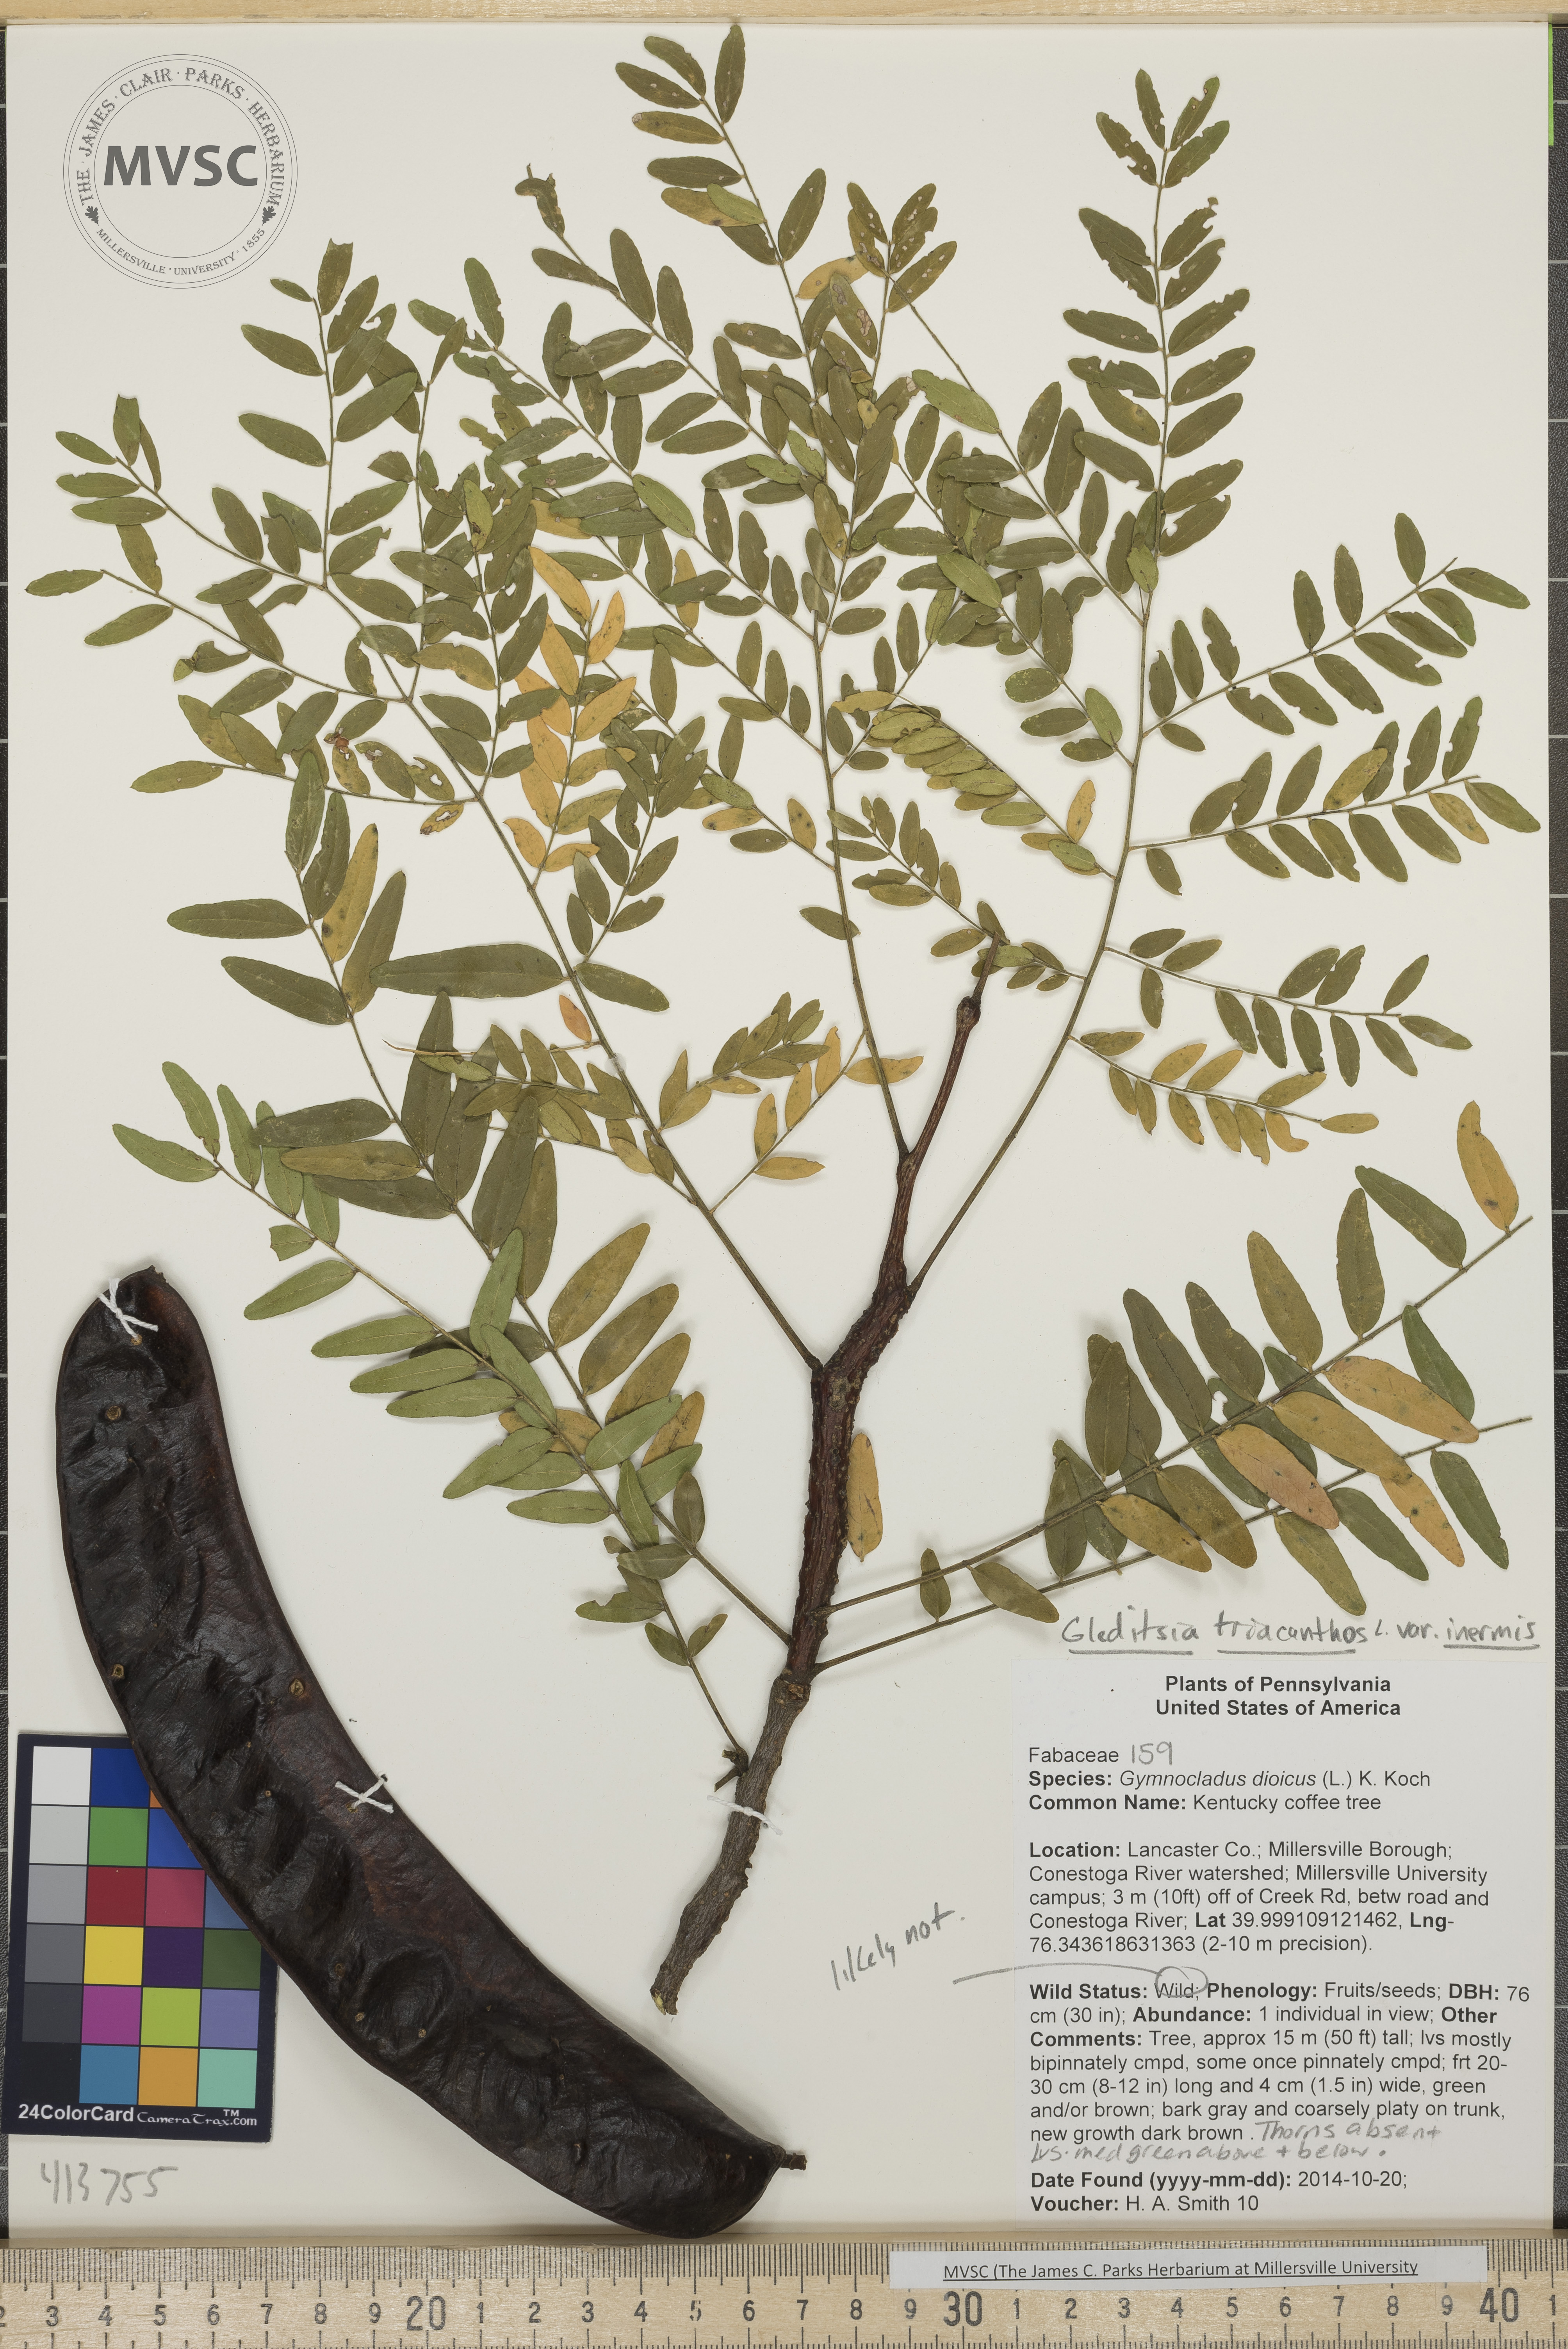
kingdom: Plantae
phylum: Tracheophyta
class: Magnoliopsida
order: Fabales
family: Fabaceae
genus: Gleditsia
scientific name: Gleditsia triacanthos
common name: Honey locust
